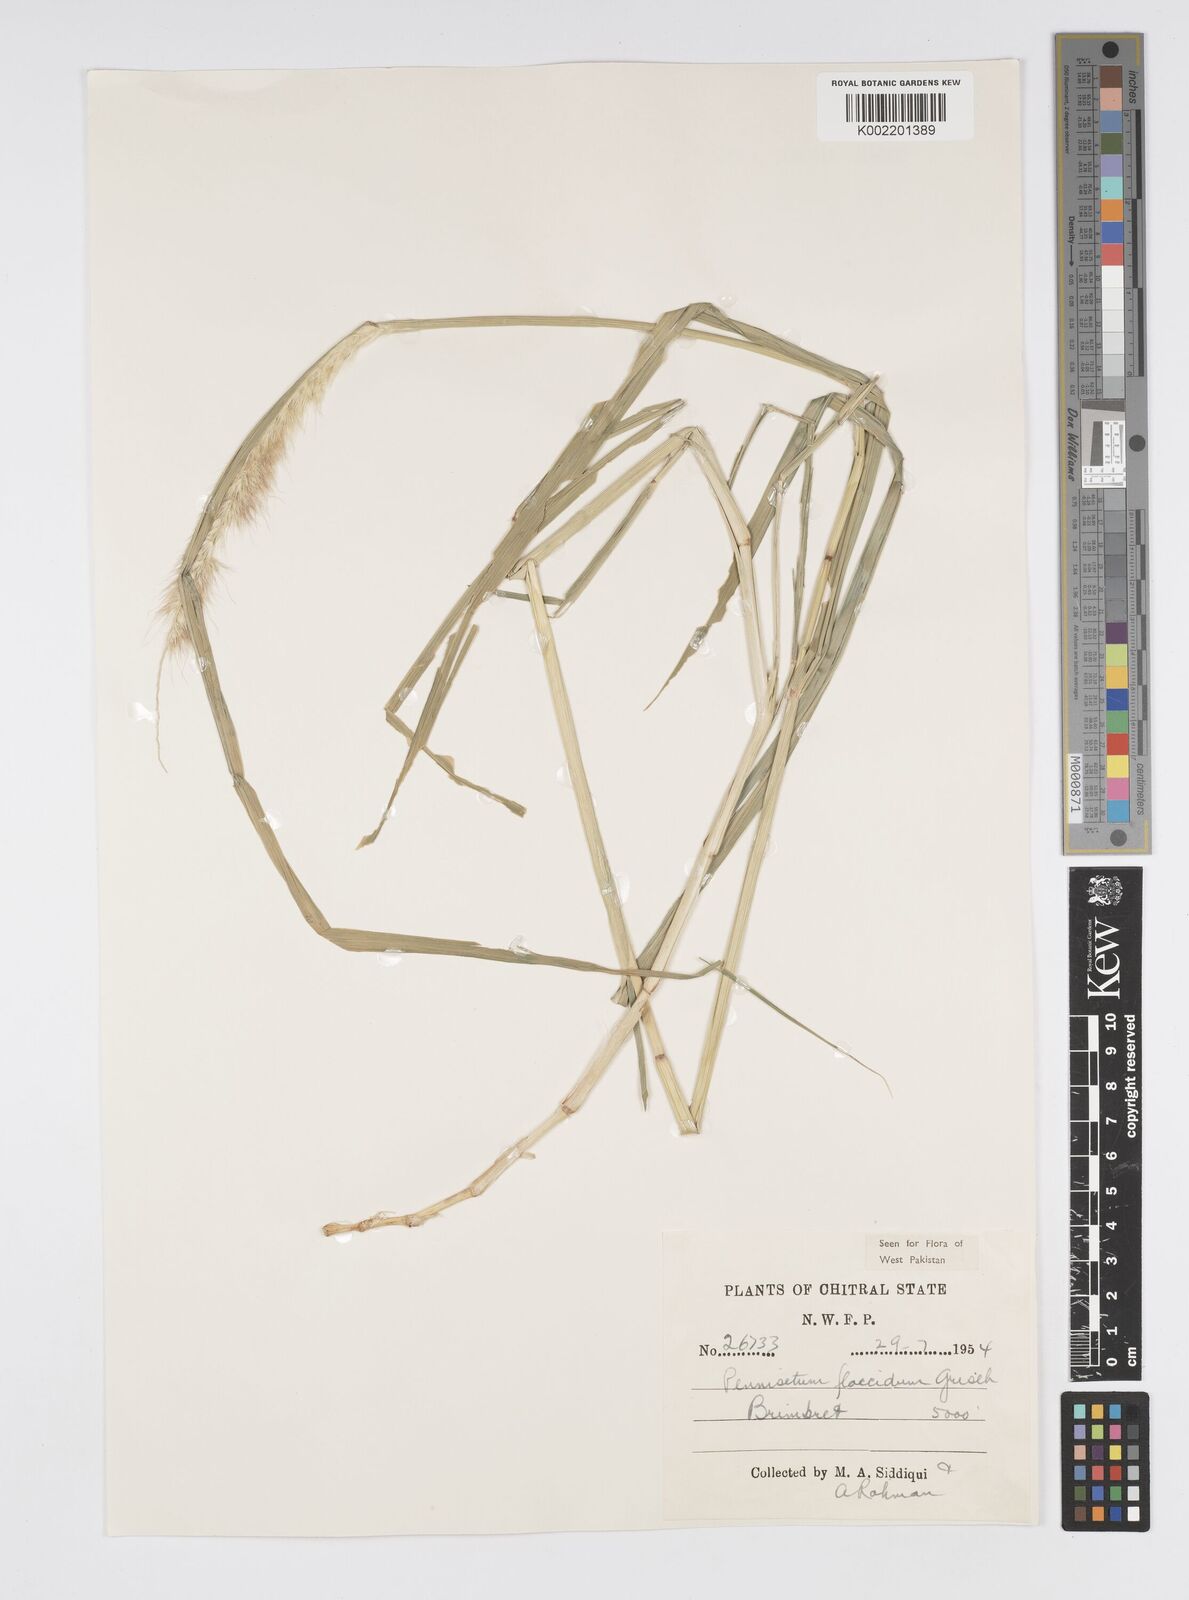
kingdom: Plantae
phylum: Tracheophyta
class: Liliopsida
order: Poales
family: Poaceae
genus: Cenchrus
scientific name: Cenchrus flaccidus
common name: Flaccid grass
